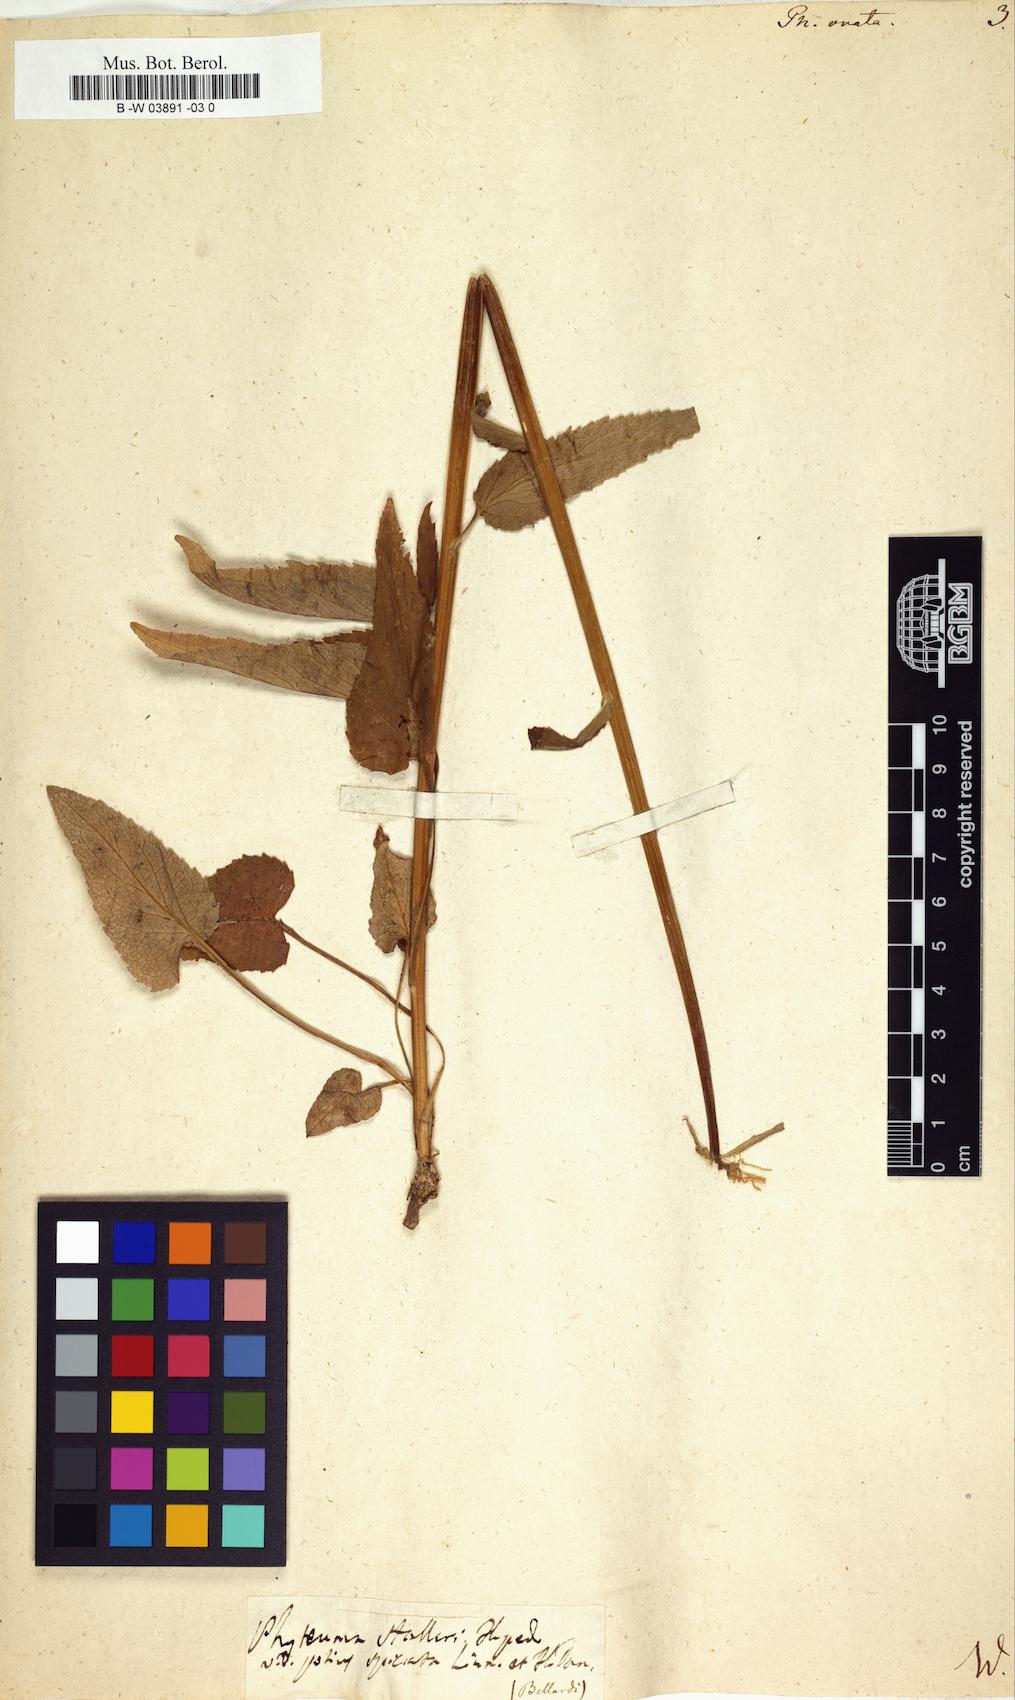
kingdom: Plantae
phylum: Tracheophyta
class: Magnoliopsida
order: Asterales
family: Campanulaceae
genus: Phyteuma
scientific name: Phyteuma ovatum
